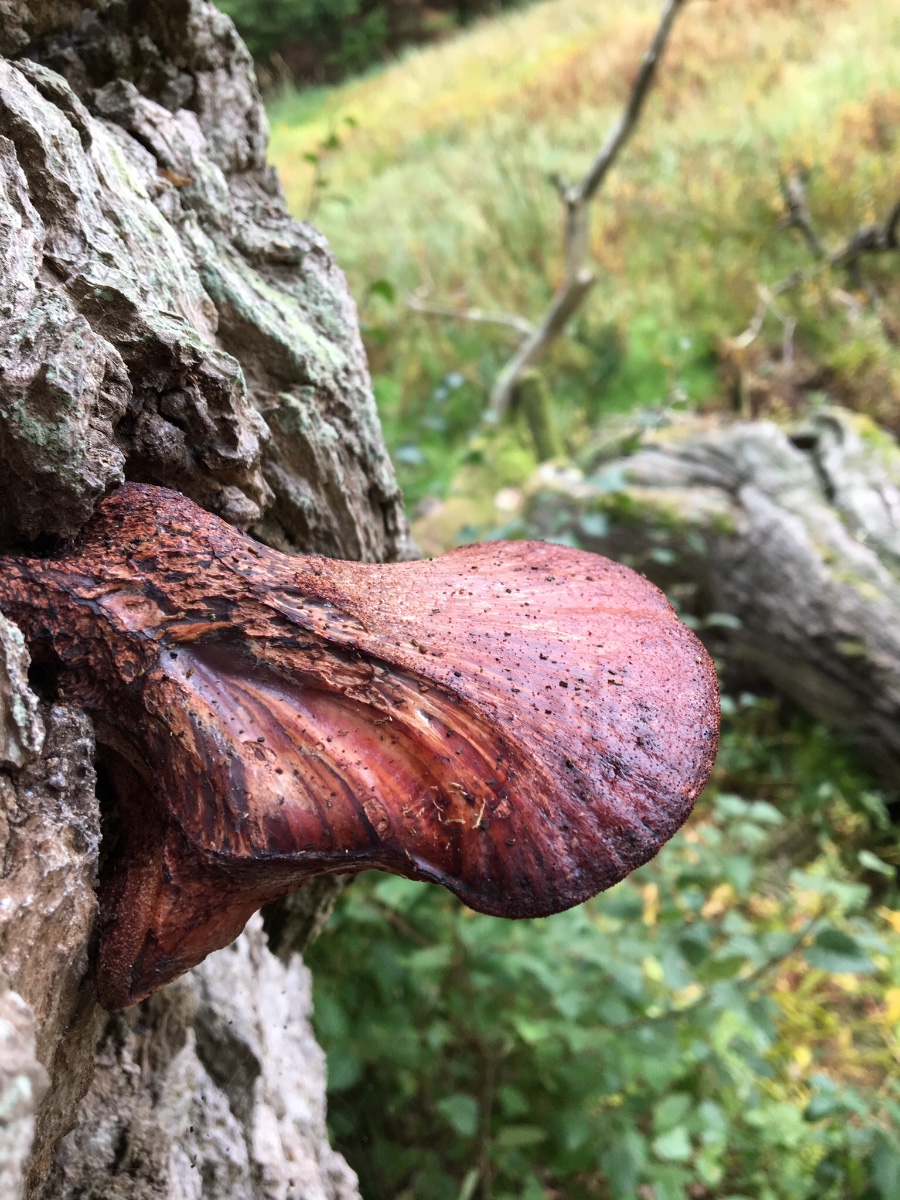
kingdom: Fungi
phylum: Basidiomycota
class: Agaricomycetes
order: Agaricales
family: Fistulinaceae
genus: Fistulina
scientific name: Fistulina hepatica
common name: oksetunge
